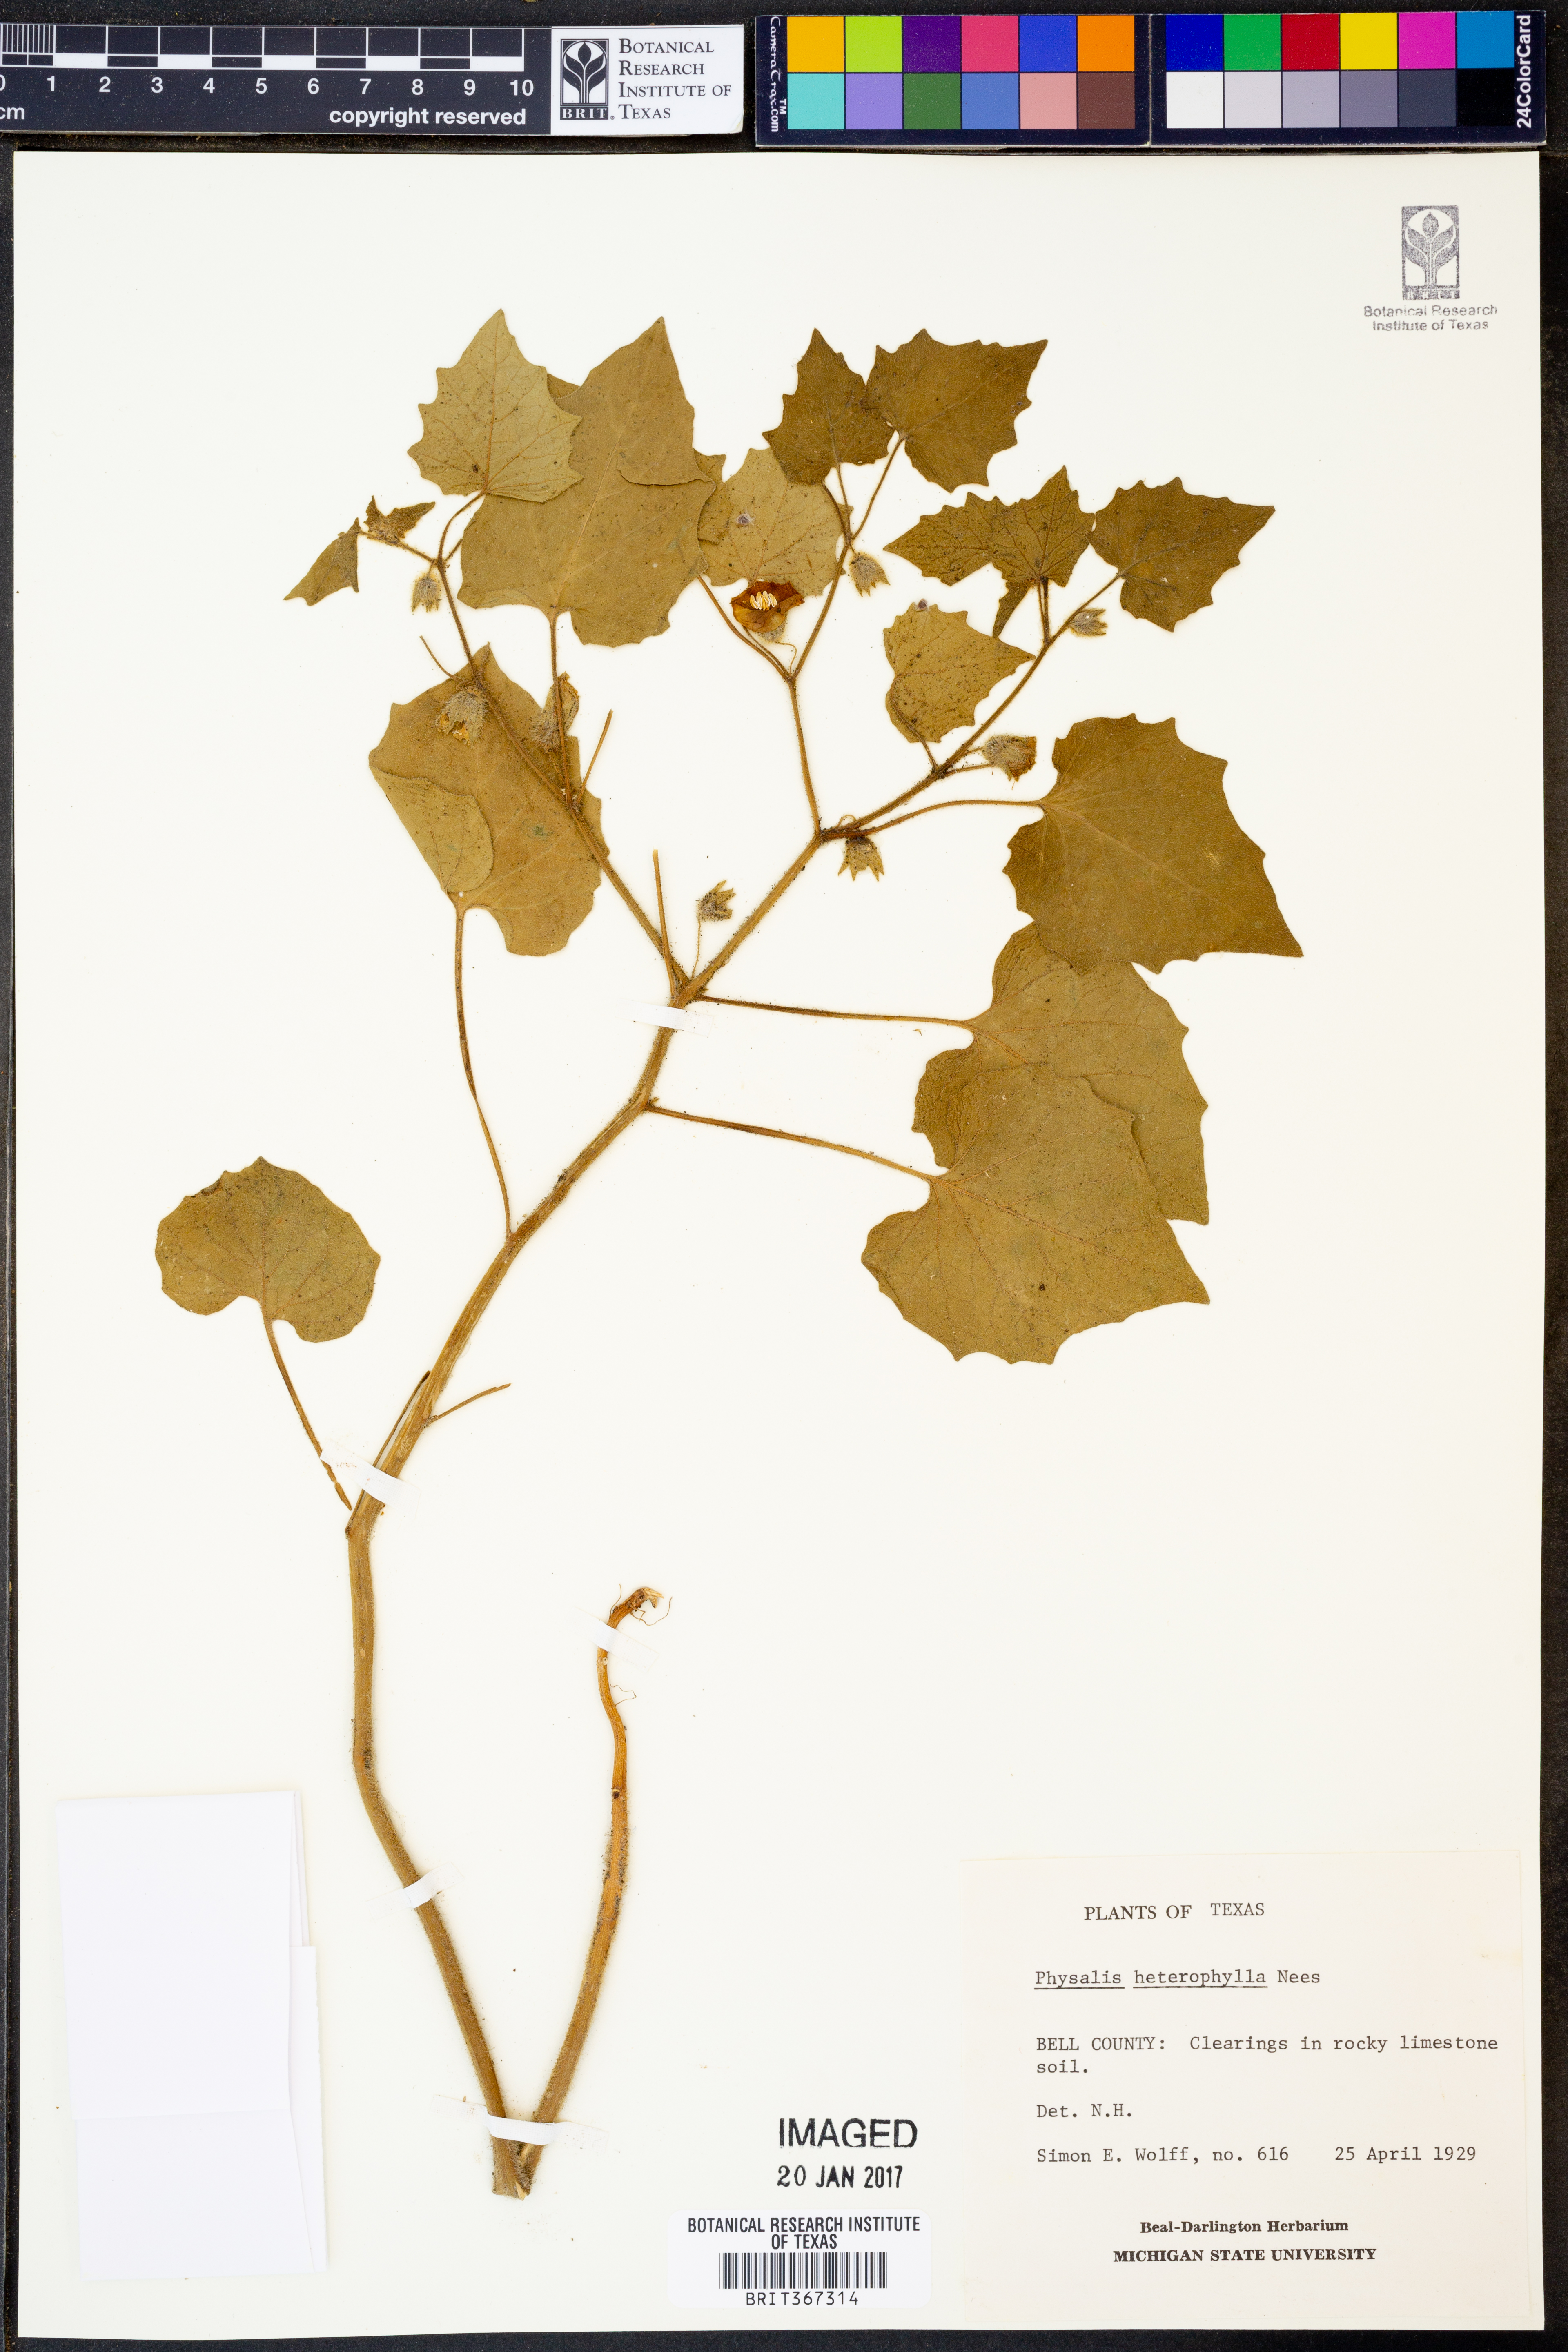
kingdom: Plantae
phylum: Tracheophyta
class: Magnoliopsida
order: Solanales
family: Solanaceae
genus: Physalis
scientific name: Physalis heterophylla
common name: Clammy ground-cherry
